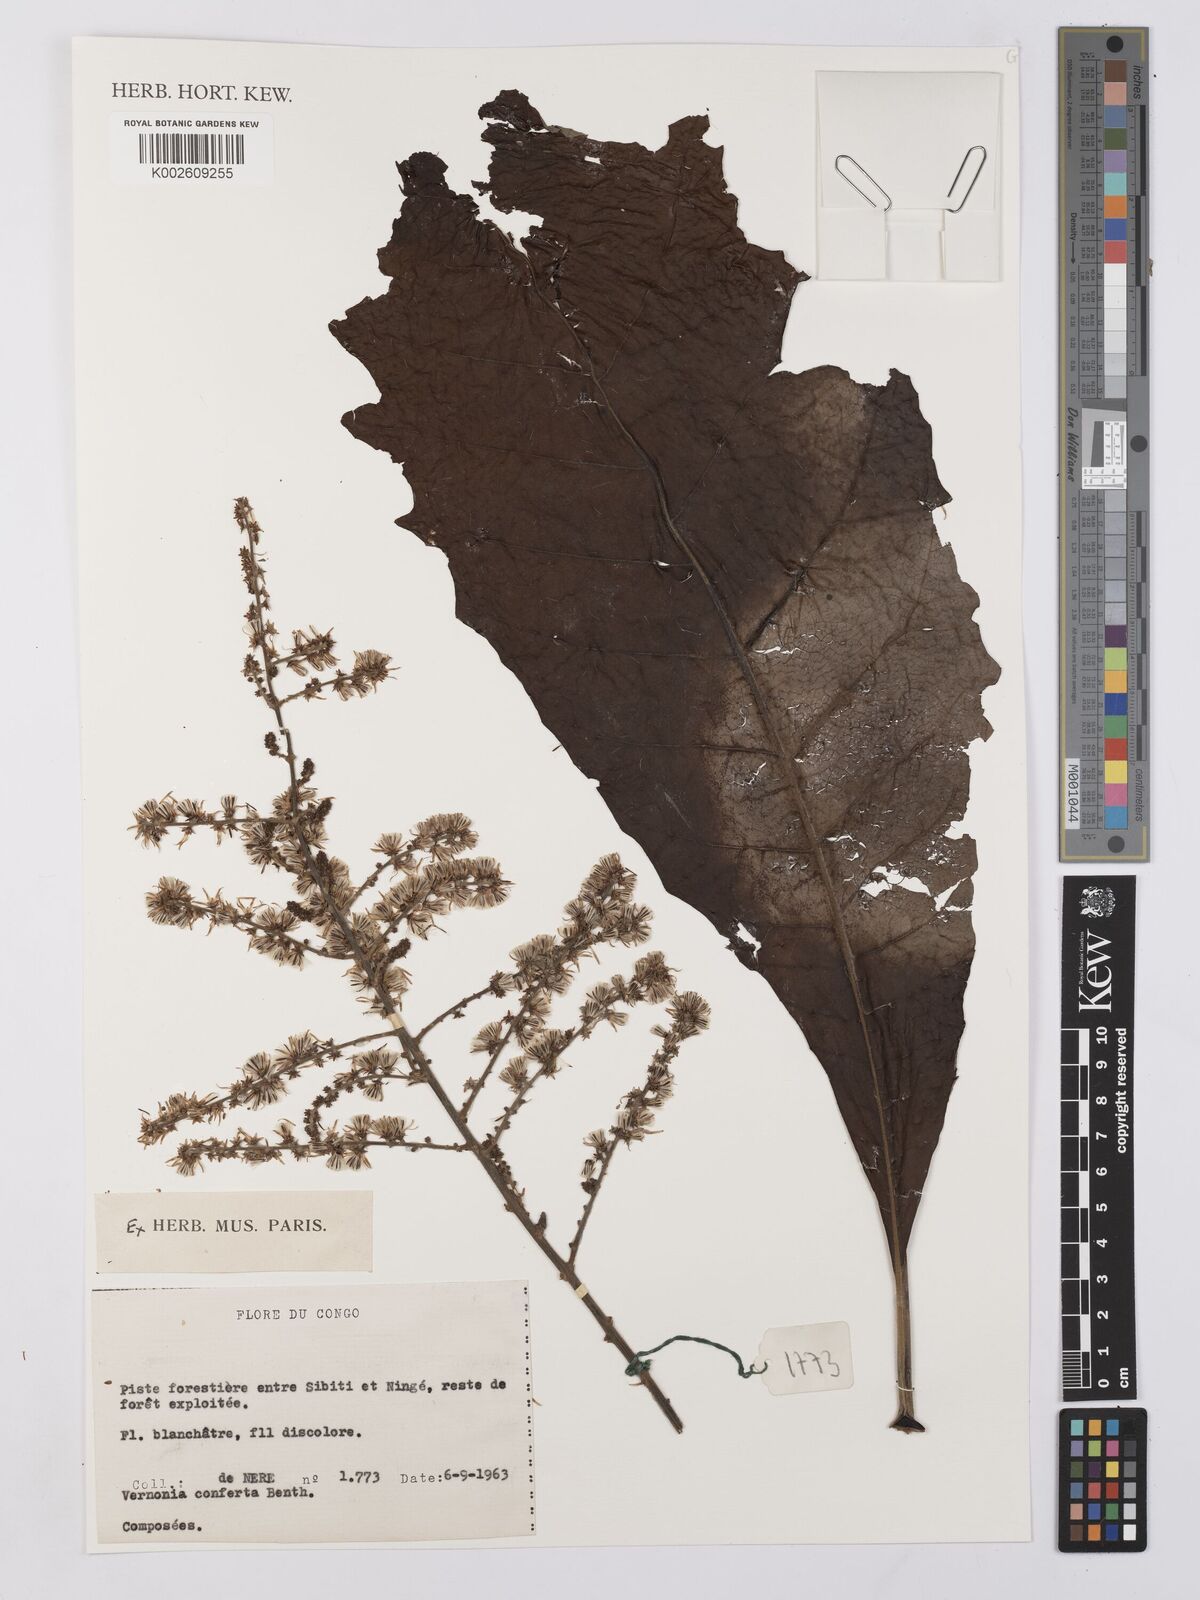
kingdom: Plantae
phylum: Tracheophyta
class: Magnoliopsida
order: Asterales
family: Asteraceae
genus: Monosis
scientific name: Monosis conferta
